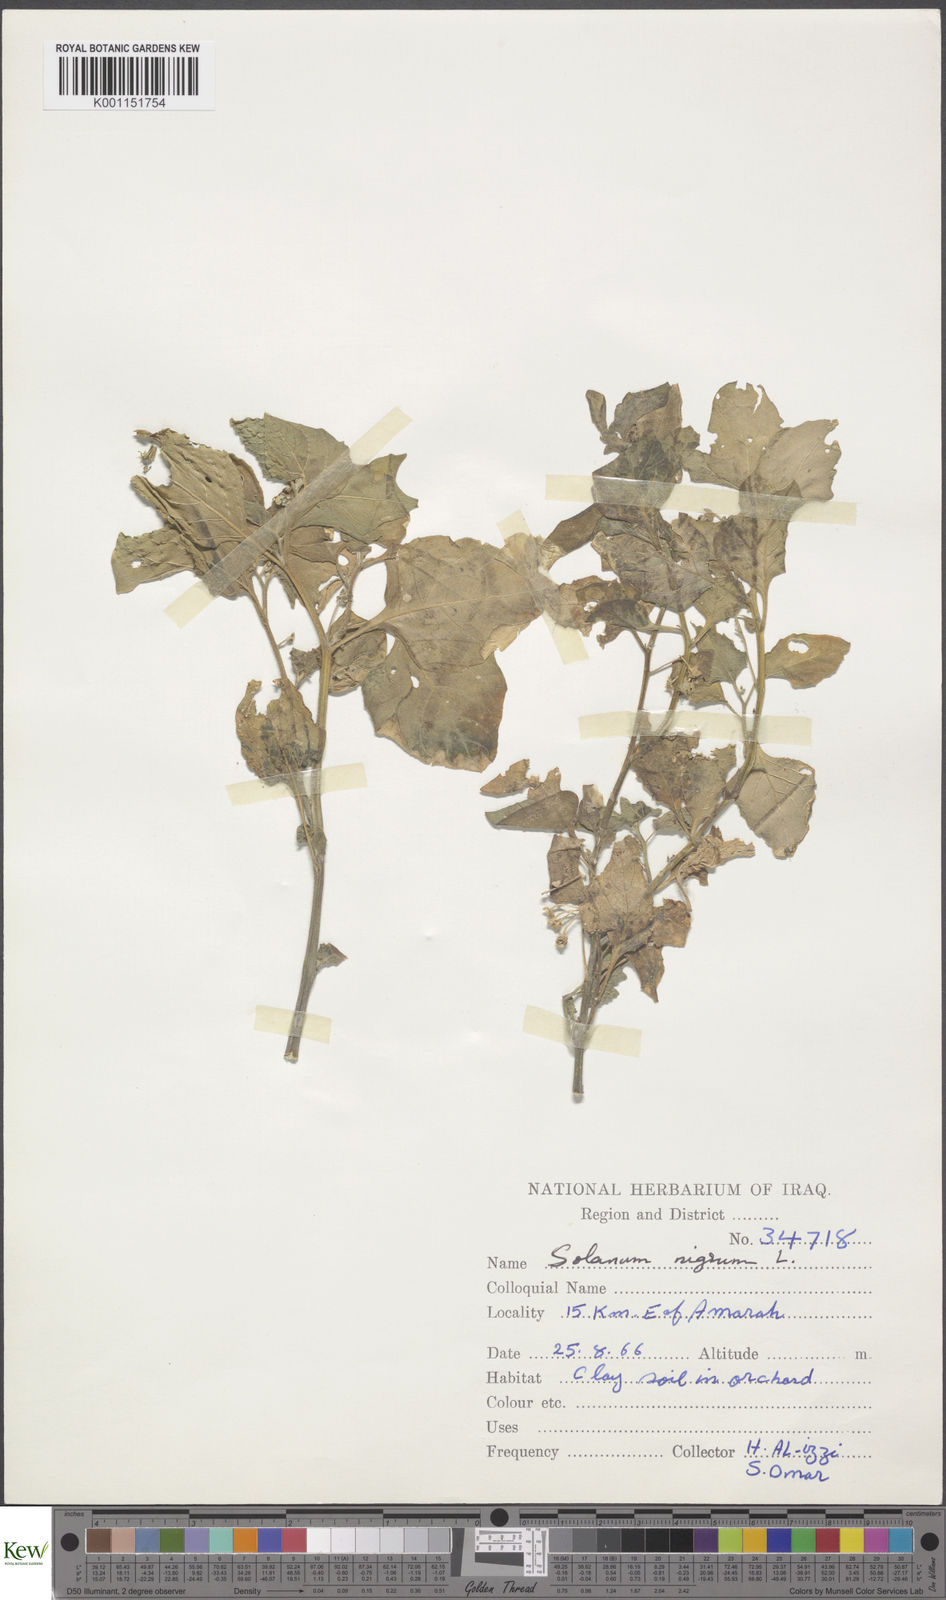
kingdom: Plantae
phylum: Tracheophyta
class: Magnoliopsida
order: Solanales
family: Solanaceae
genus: Solanum
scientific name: Solanum nigrum
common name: Black nightshade
